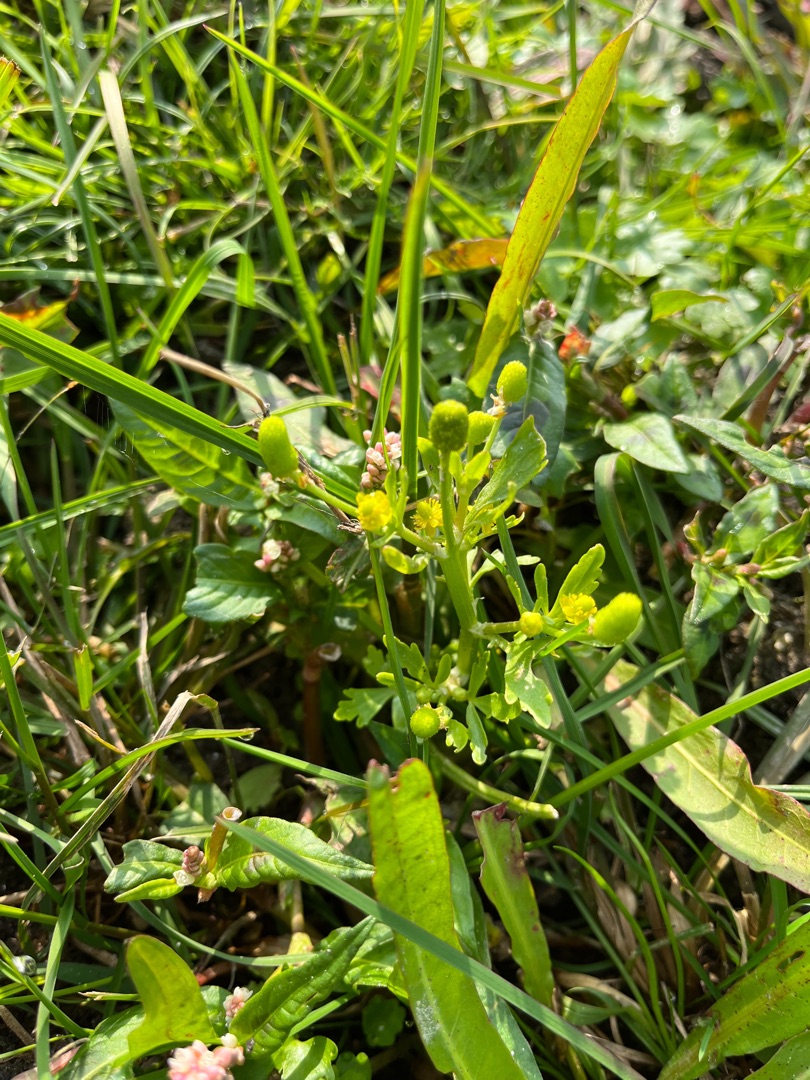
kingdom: Plantae
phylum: Tracheophyta
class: Magnoliopsida
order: Ranunculales
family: Ranunculaceae
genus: Ranunculus
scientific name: Ranunculus sceleratus
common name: Tigger-ranunkel
